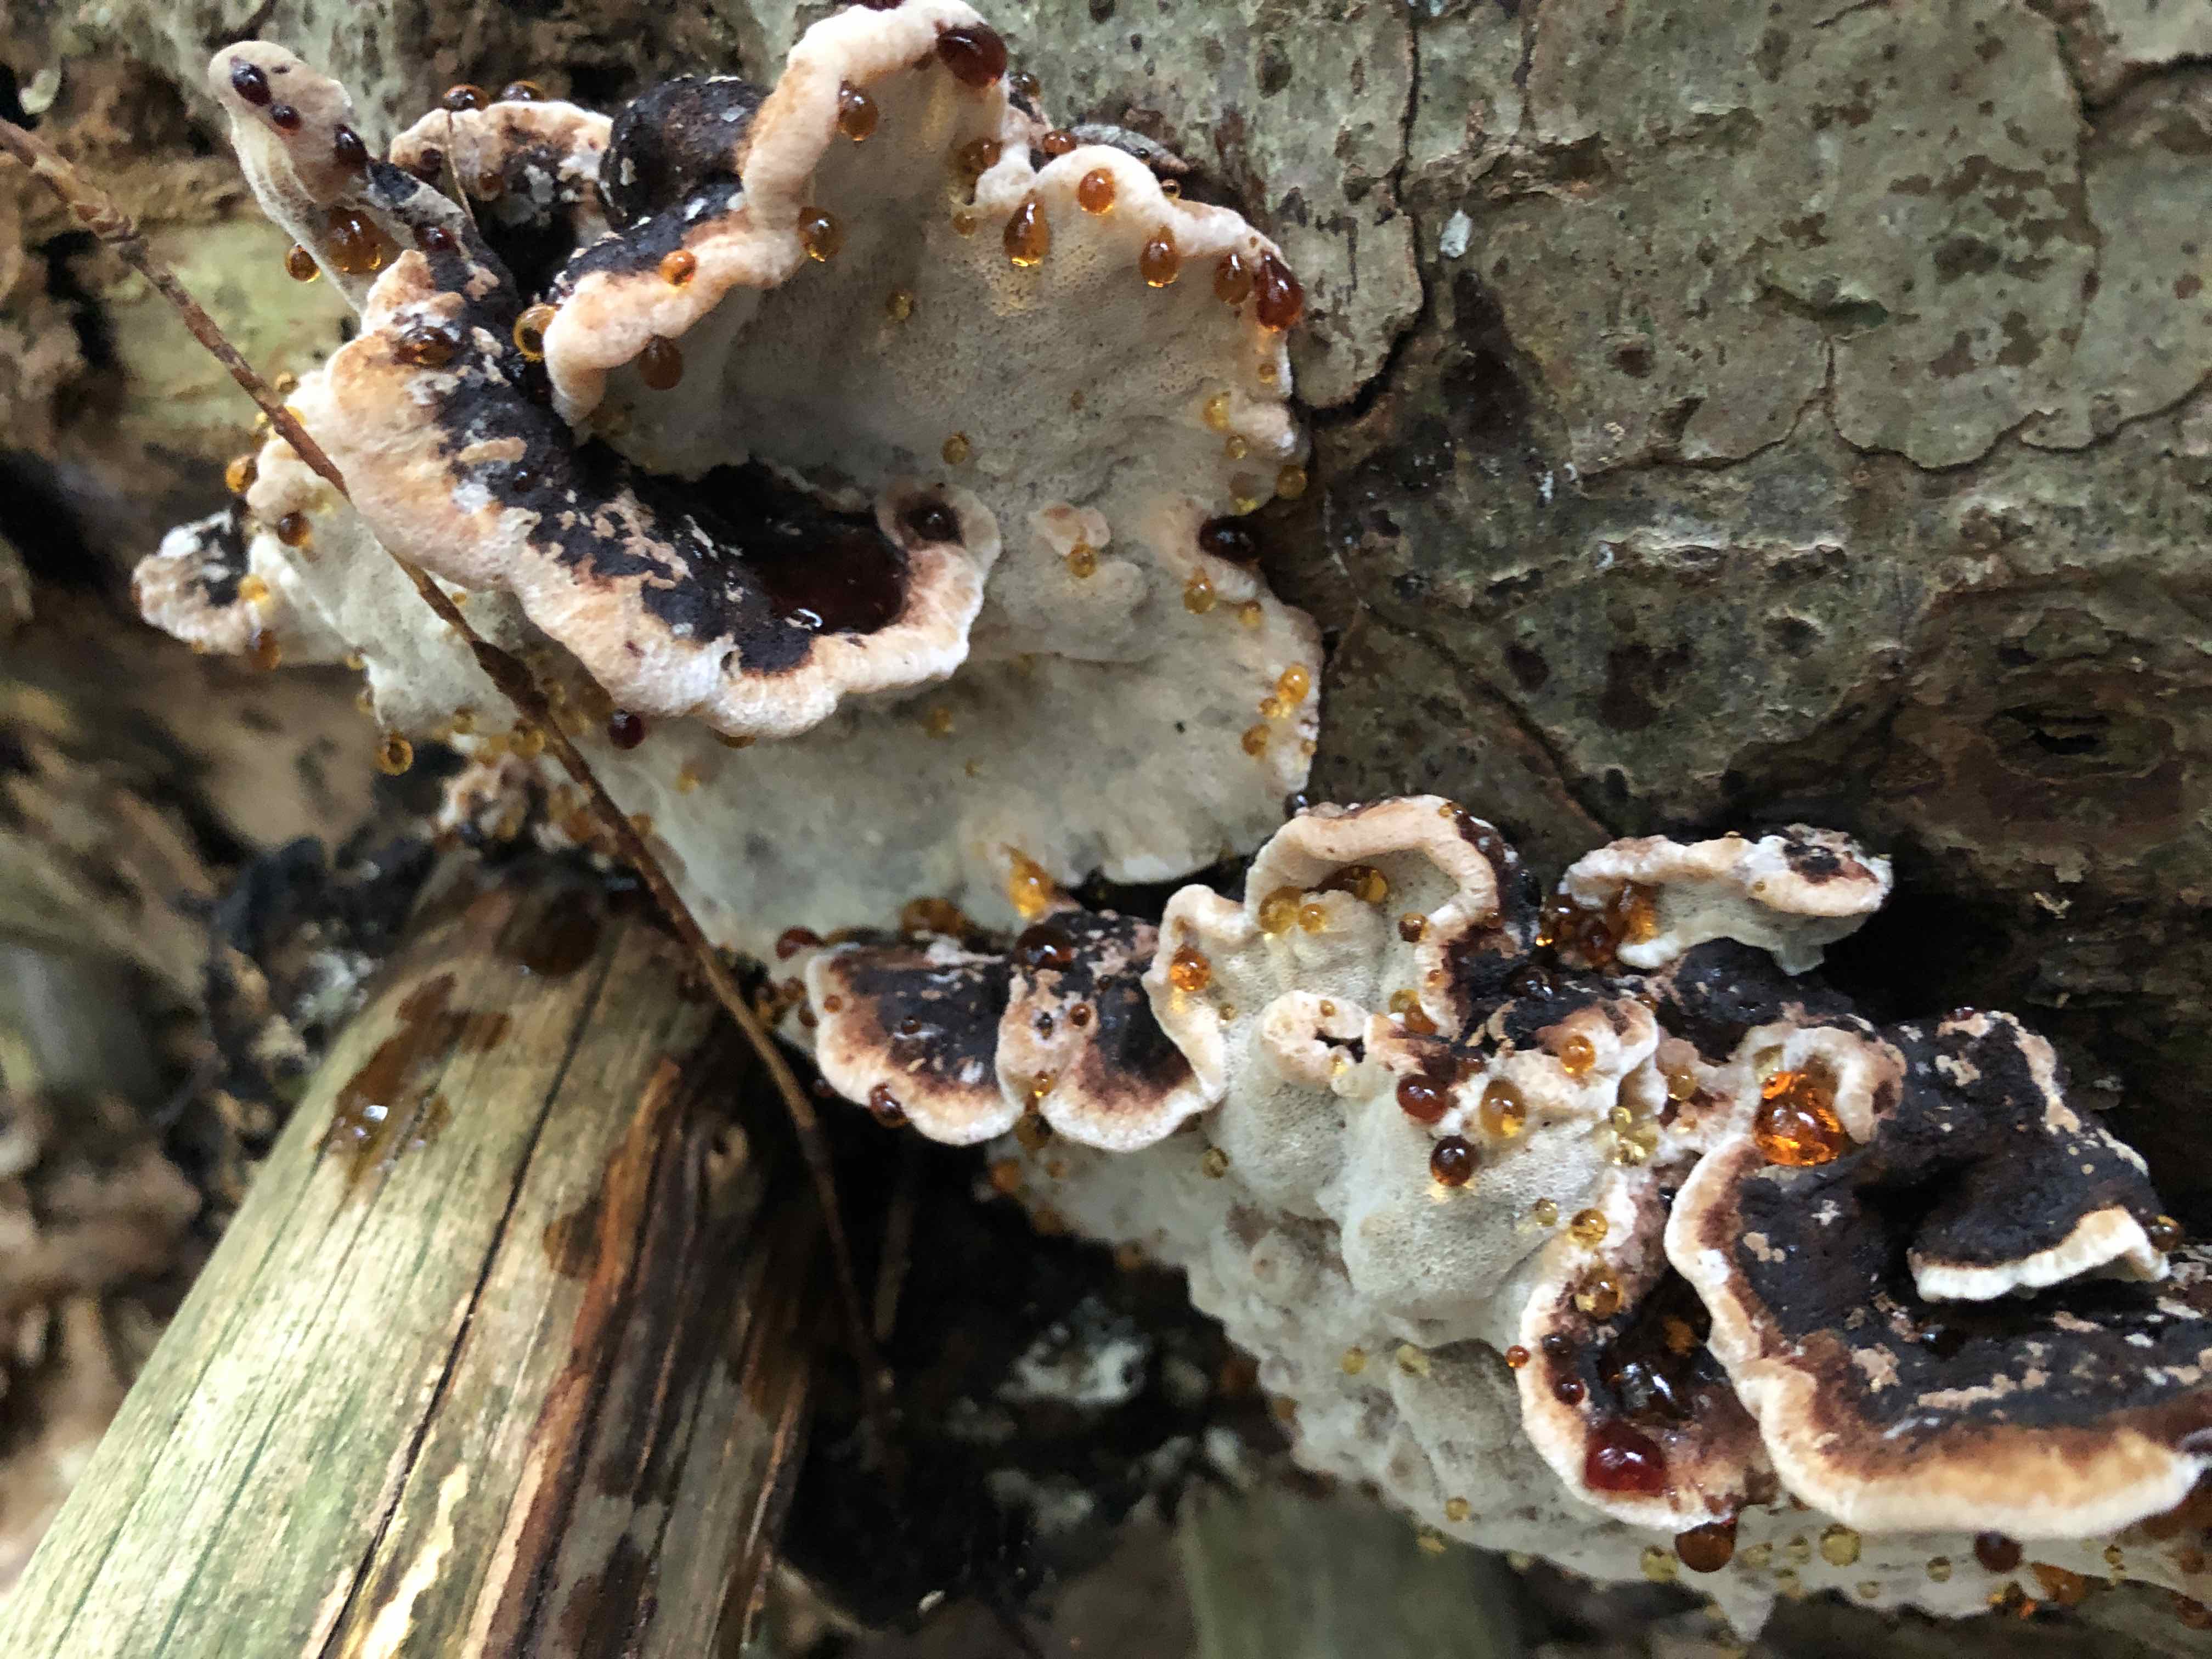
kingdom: Fungi
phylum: Basidiomycota
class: Agaricomycetes
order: Polyporales
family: Ischnodermataceae
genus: Ischnoderma
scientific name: Ischnoderma benzoinum
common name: gran-tjæreporesvamp
